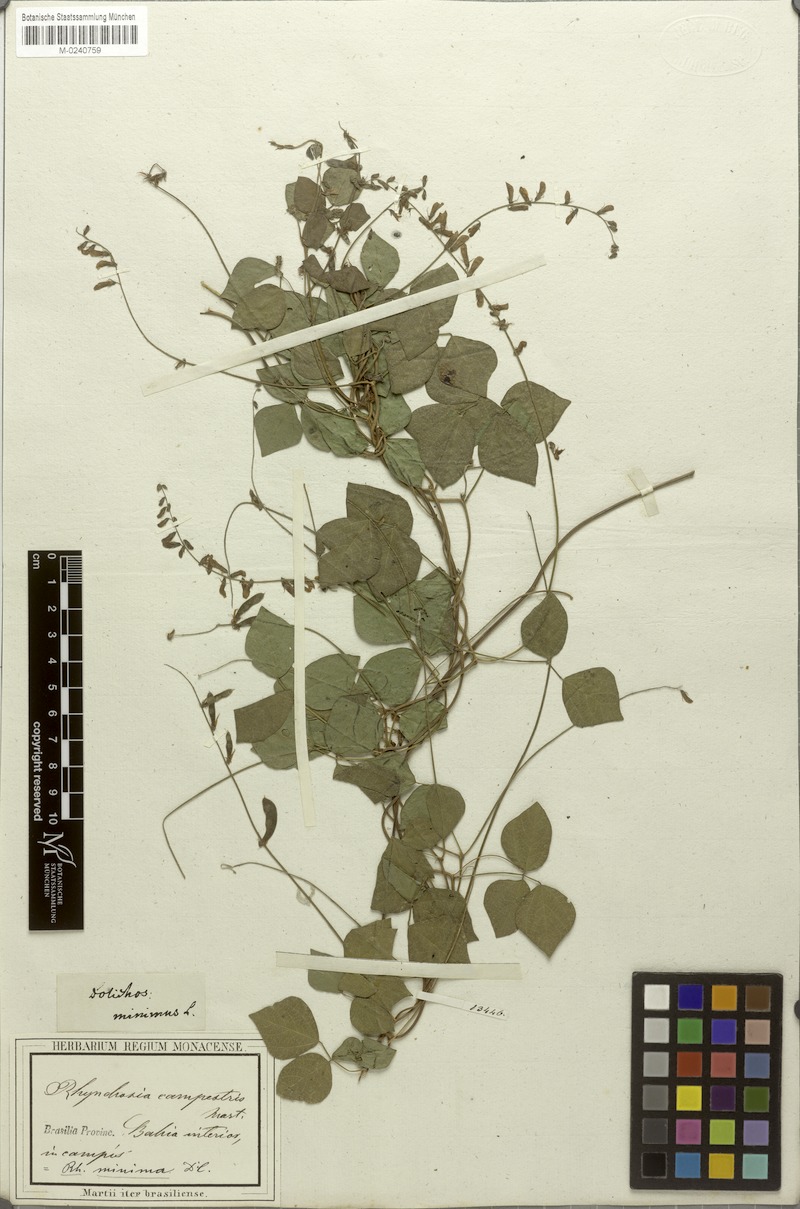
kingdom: Plantae
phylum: Tracheophyta
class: Magnoliopsida
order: Fabales
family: Fabaceae
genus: Rhynchosia
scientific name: Rhynchosia minima
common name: Least snoutbean
